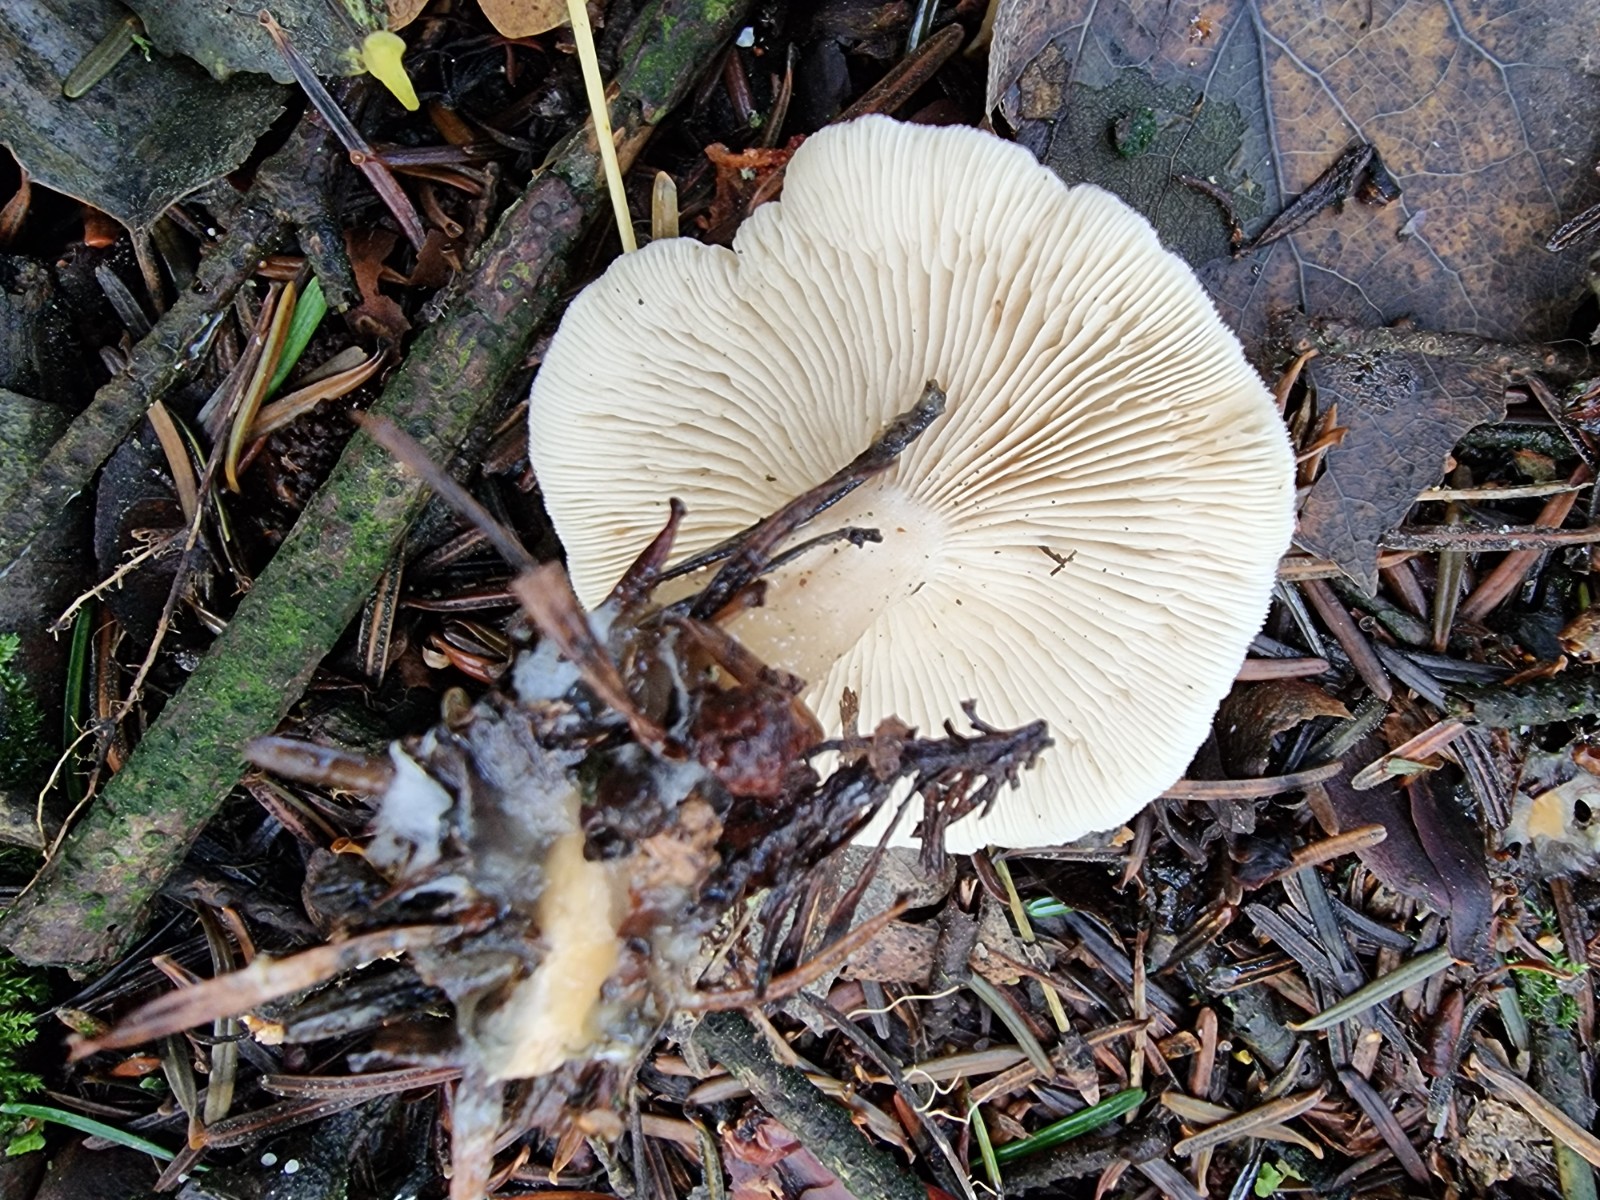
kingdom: Fungi
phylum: Basidiomycota
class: Agaricomycetes
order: Agaricales
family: Tricholomataceae
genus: Clitocybe
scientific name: Clitocybe
